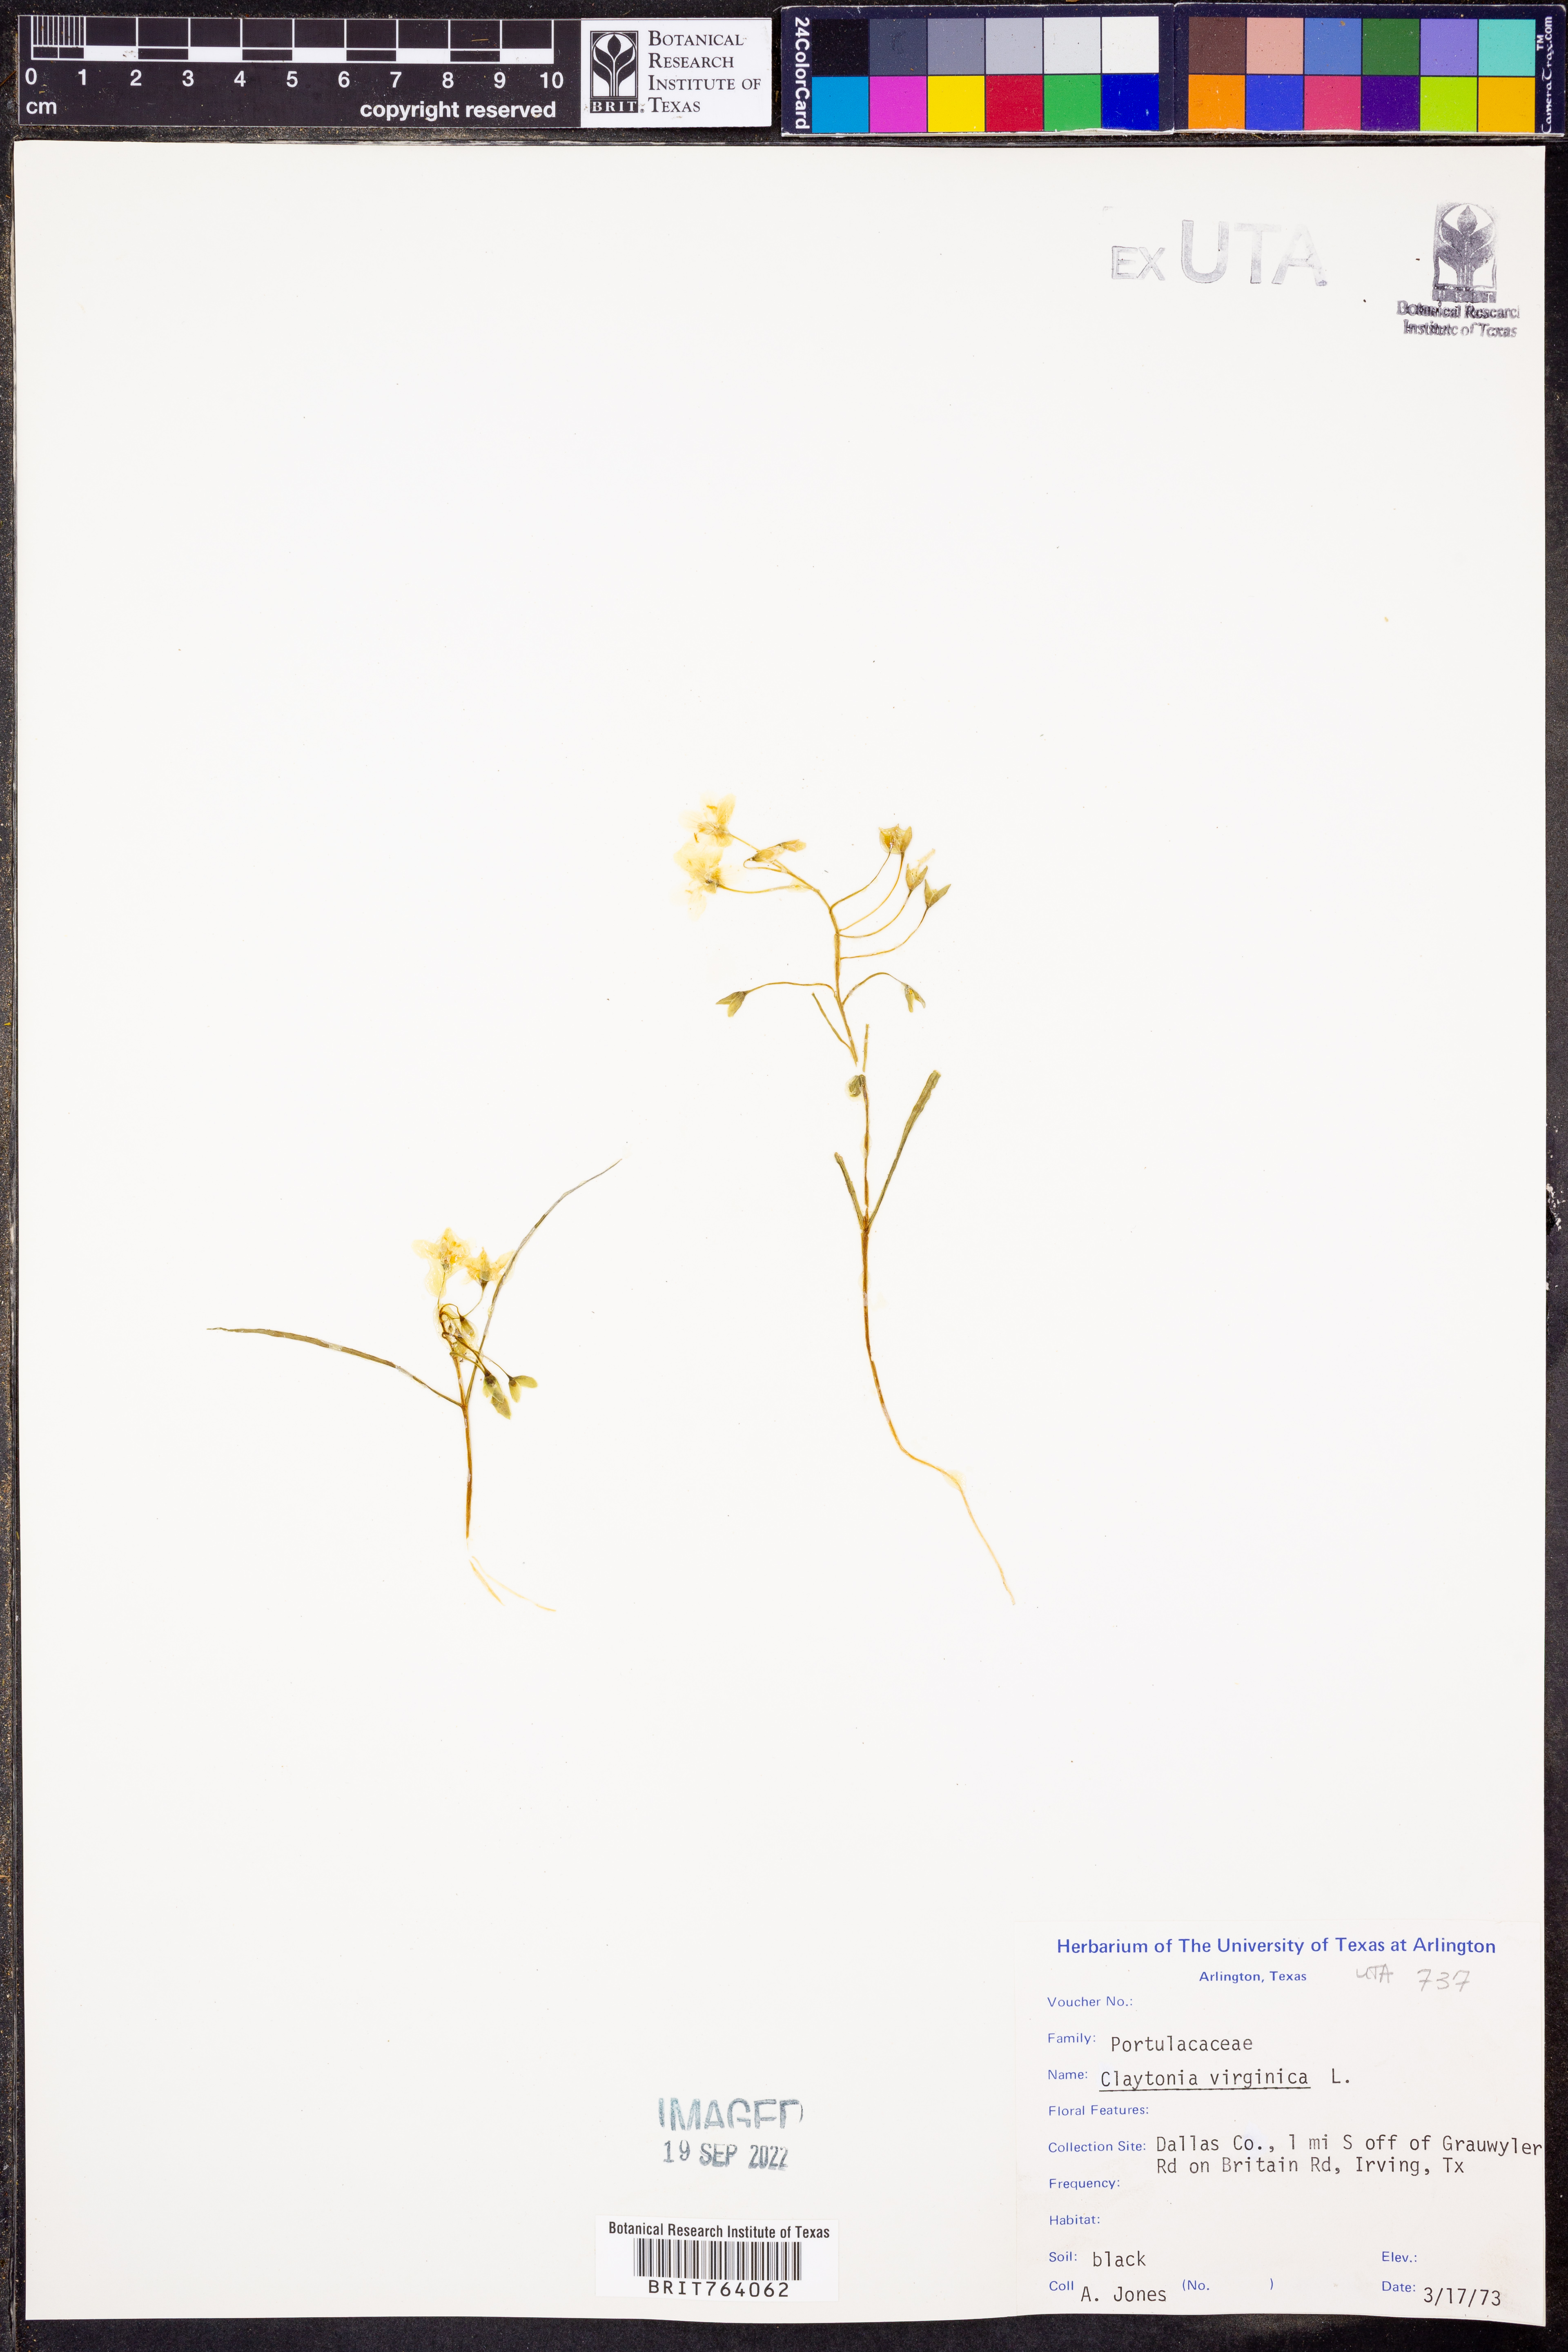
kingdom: Plantae
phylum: Tracheophyta
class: Magnoliopsida
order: Caryophyllales
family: Montiaceae
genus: Claytonia
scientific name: Claytonia virginica
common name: Virginia springbeauty
